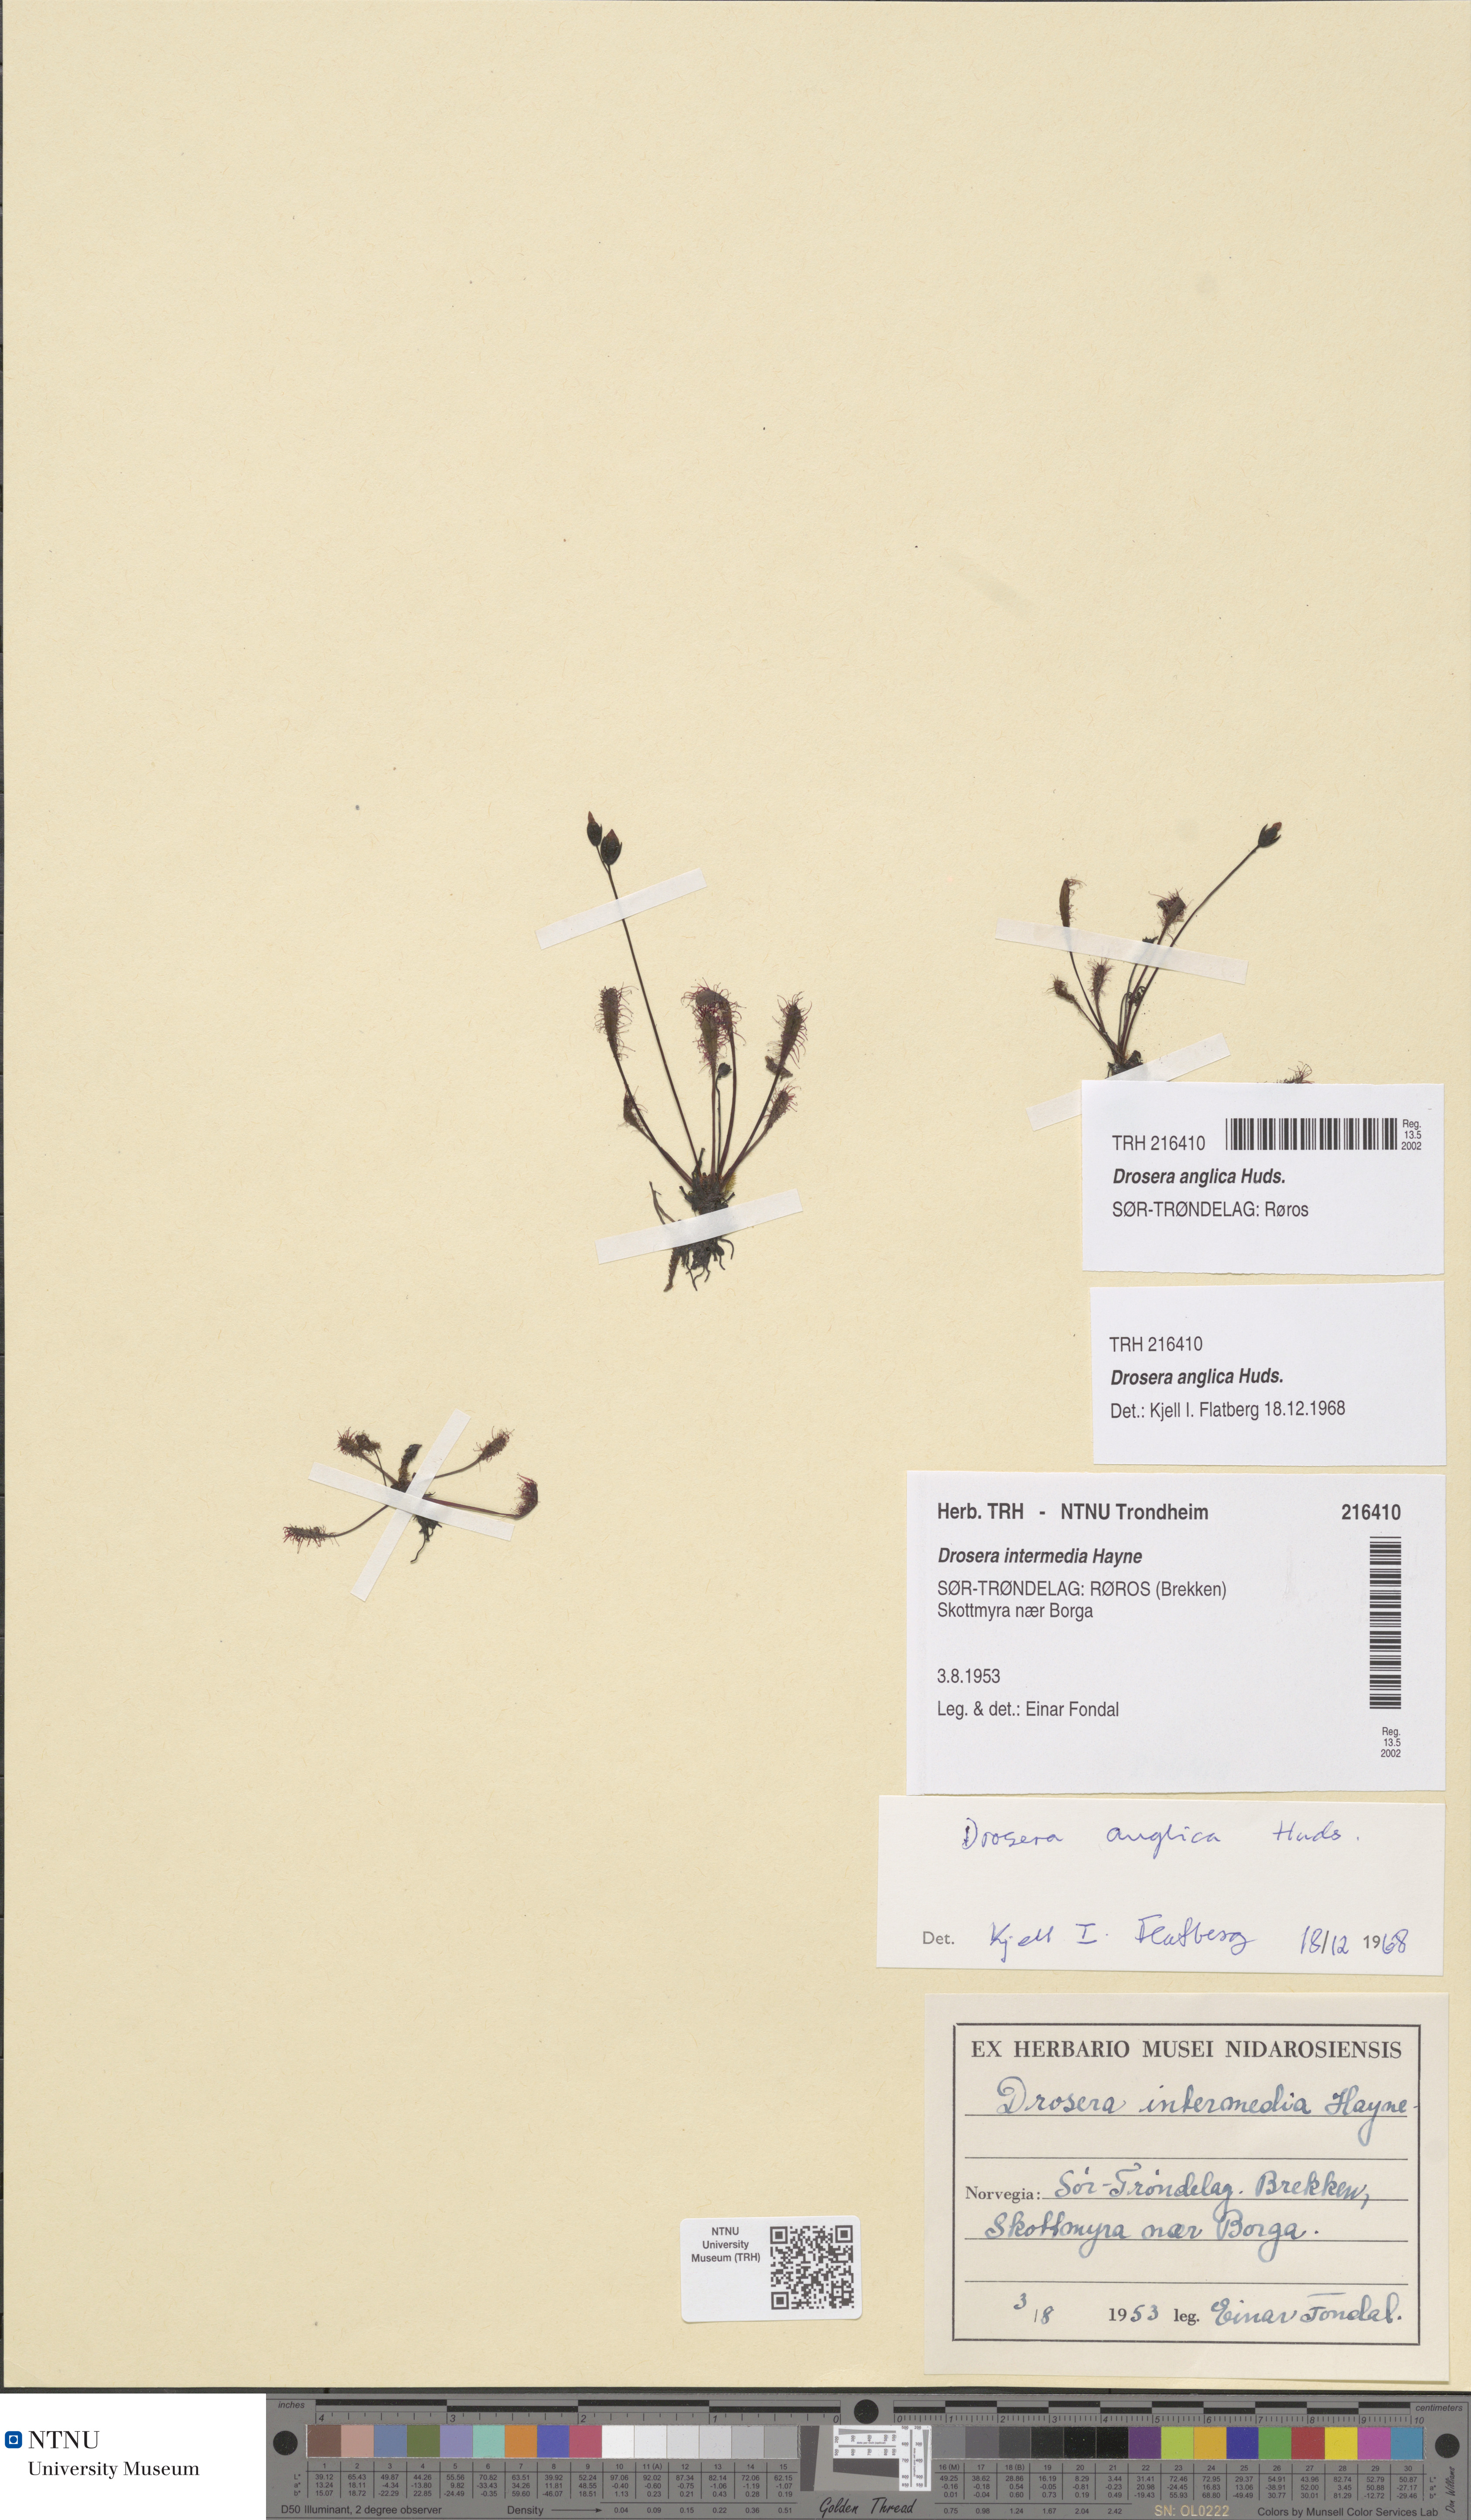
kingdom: Plantae
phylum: Tracheophyta
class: Magnoliopsida
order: Caryophyllales
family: Droseraceae
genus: Drosera
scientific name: Drosera anglica
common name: Great sundew
